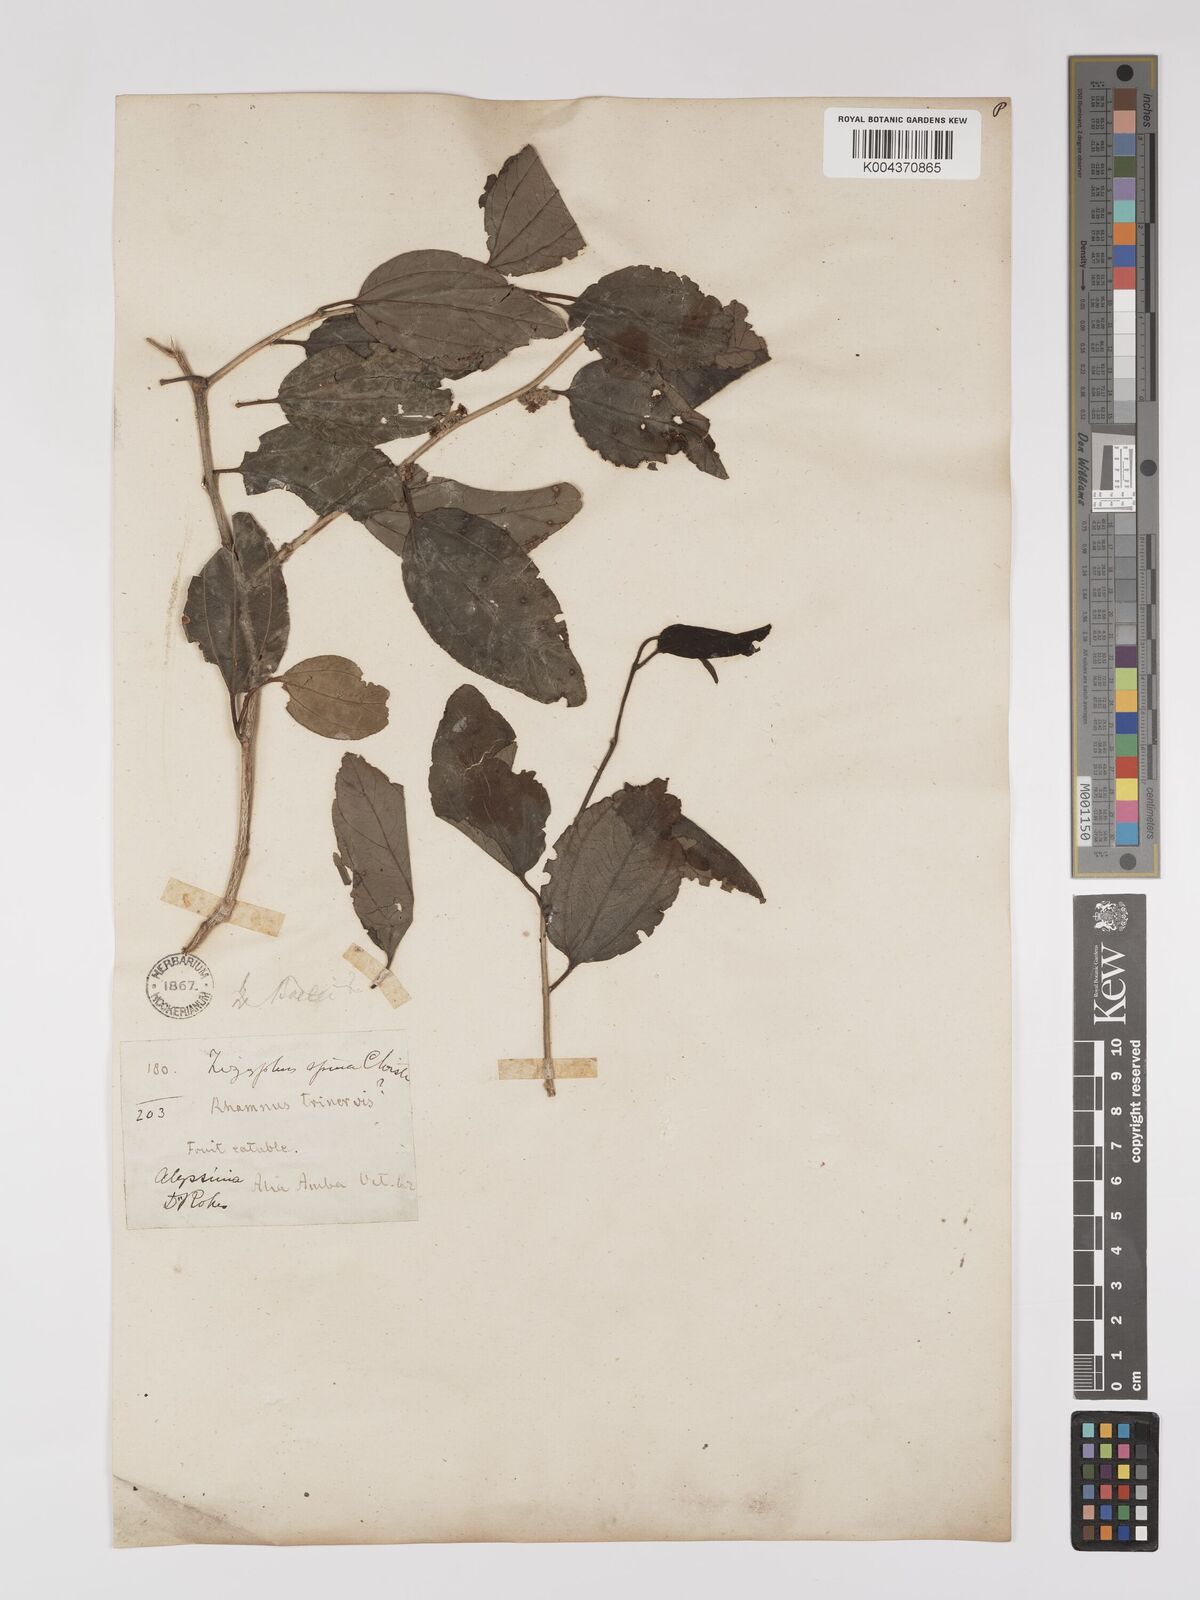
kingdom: Plantae
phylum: Tracheophyta
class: Magnoliopsida
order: Rosales
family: Rhamnaceae
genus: Ziziphus
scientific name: Ziziphus spina-christi
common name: Syrian christ-thorn
